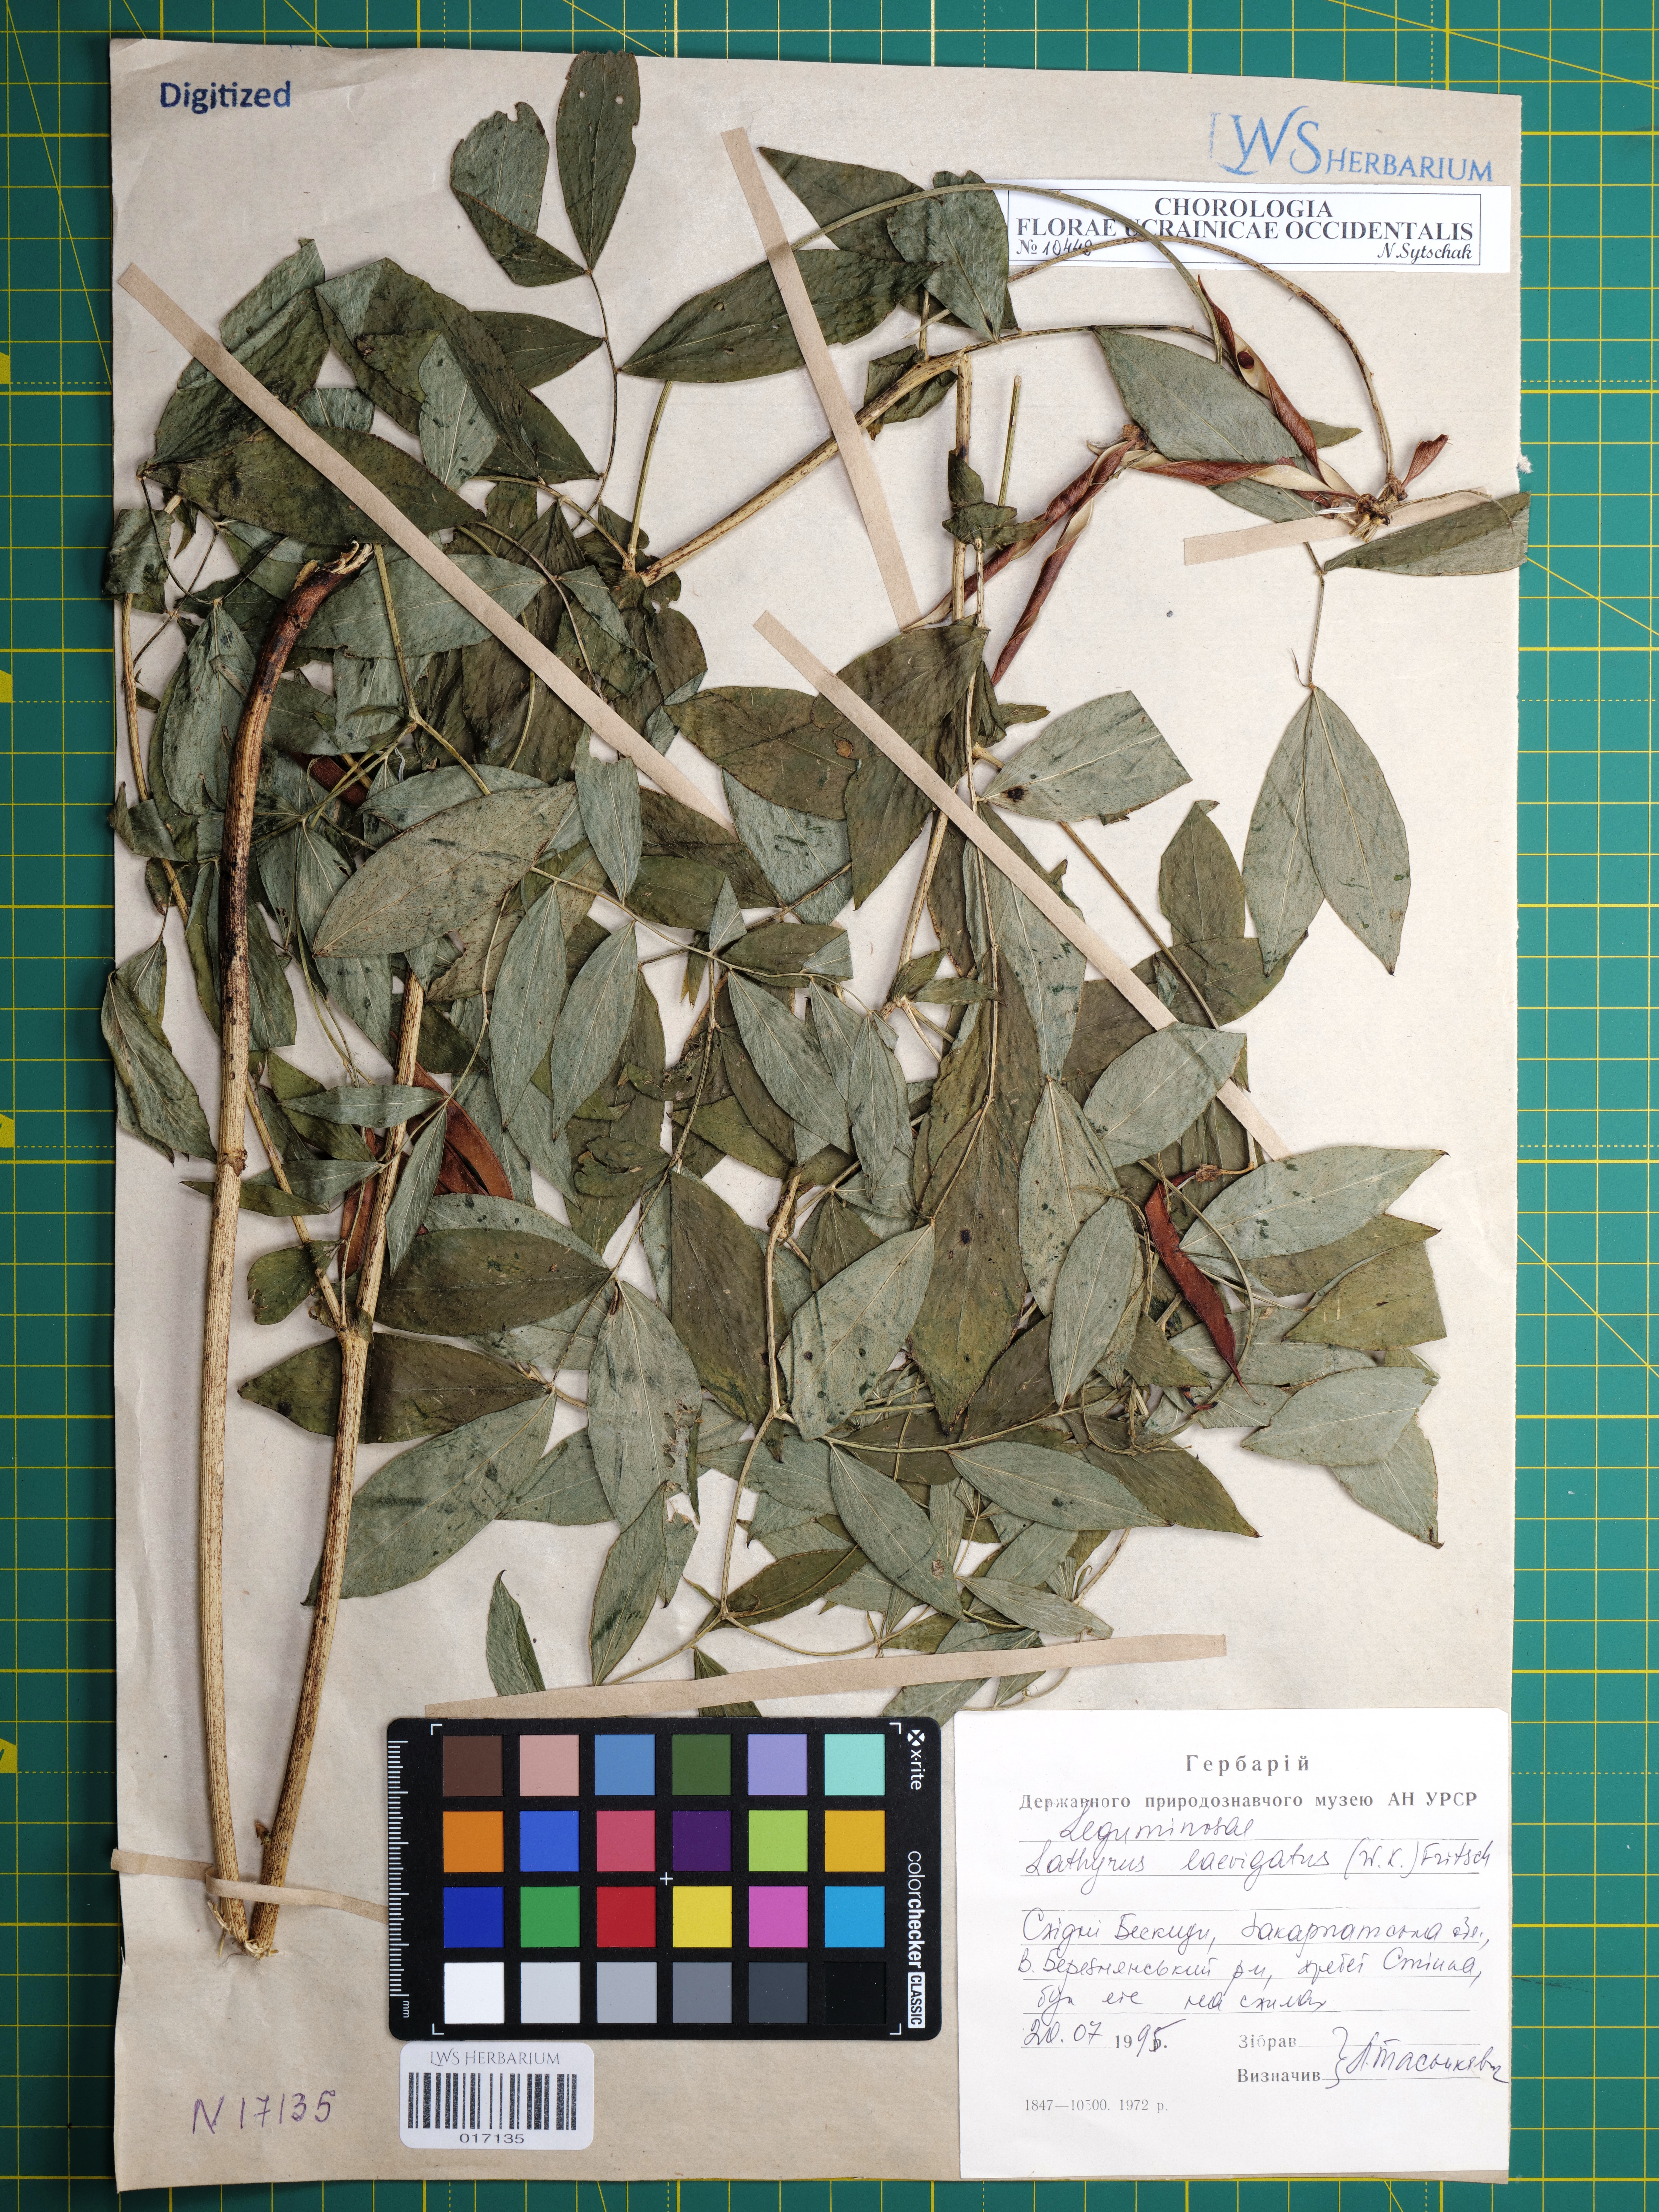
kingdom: Plantae
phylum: Tracheophyta
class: Magnoliopsida
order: Fabales
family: Fabaceae
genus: Lathyrus
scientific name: Lathyrus laevigatus
